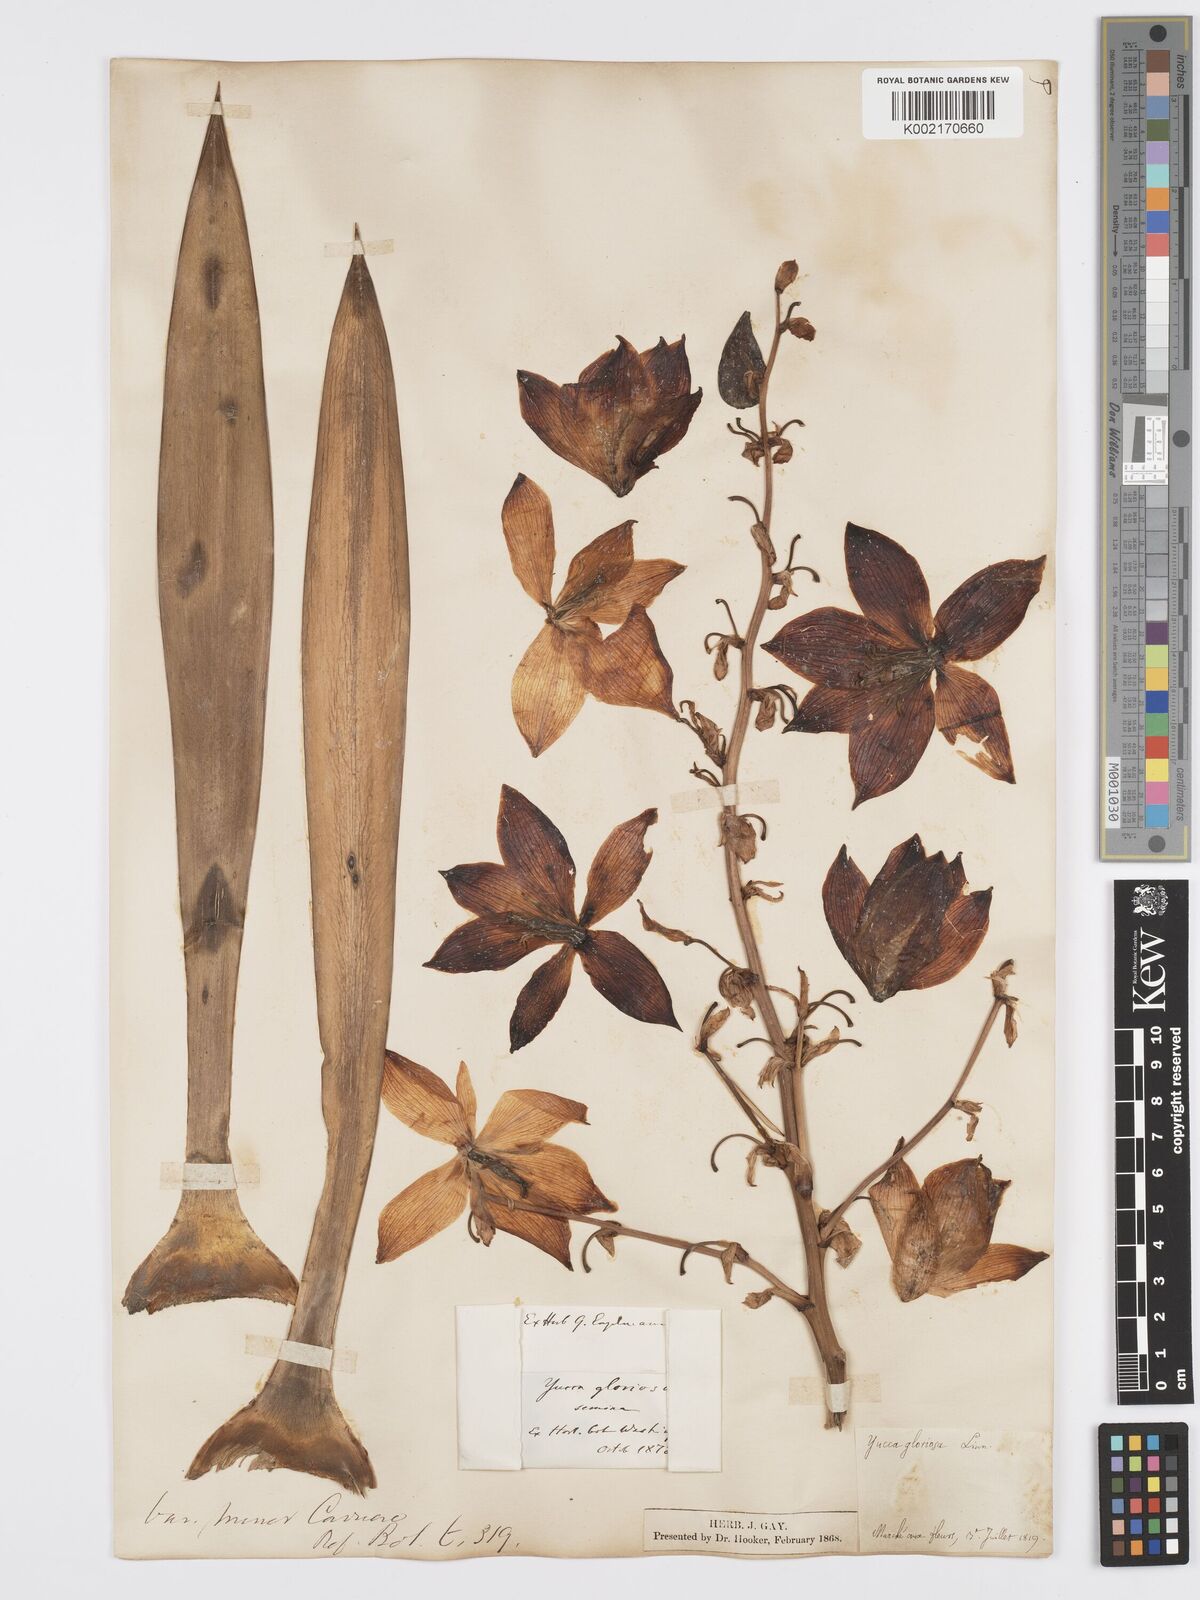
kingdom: Plantae
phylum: Tracheophyta
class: Liliopsida
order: Asparagales
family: Asparagaceae
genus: Yucca
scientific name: Yucca gloriosa
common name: Spanish-dagger
